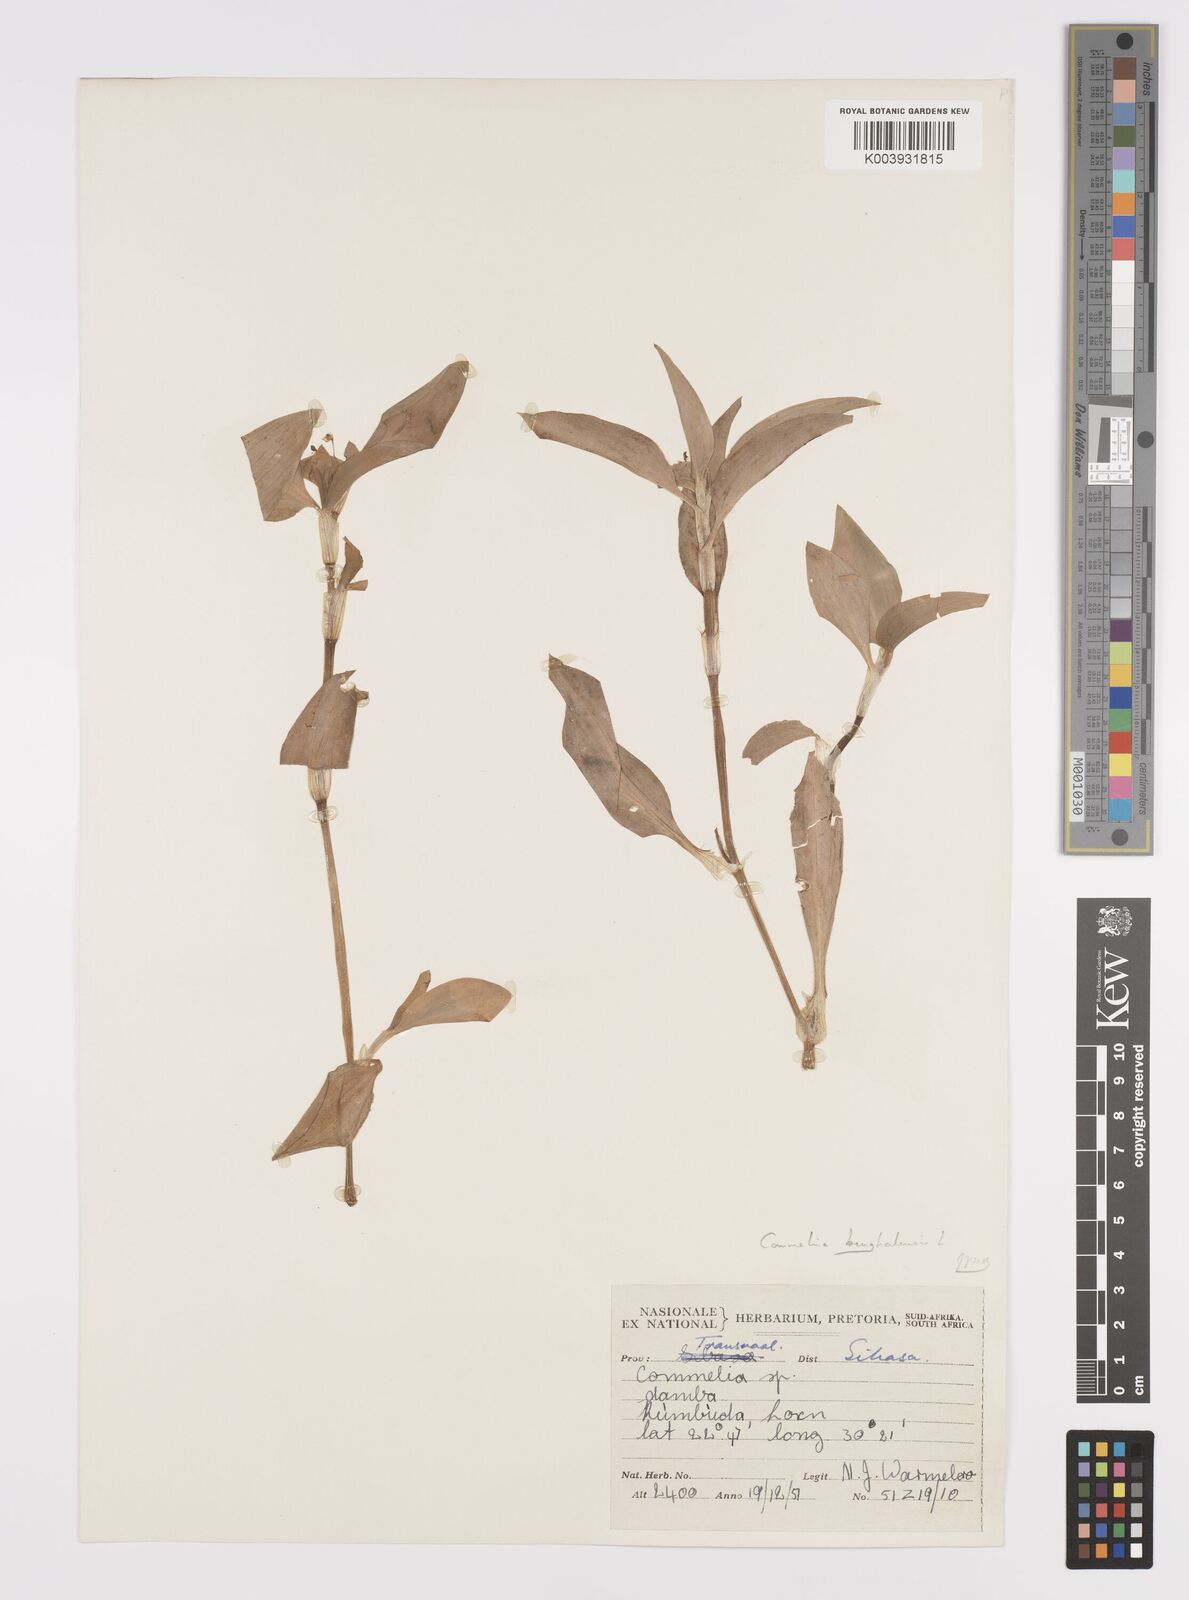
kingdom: Plantae
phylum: Tracheophyta
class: Liliopsida
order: Commelinales
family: Commelinaceae
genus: Commelina
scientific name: Commelina benghalensis
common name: Jio
